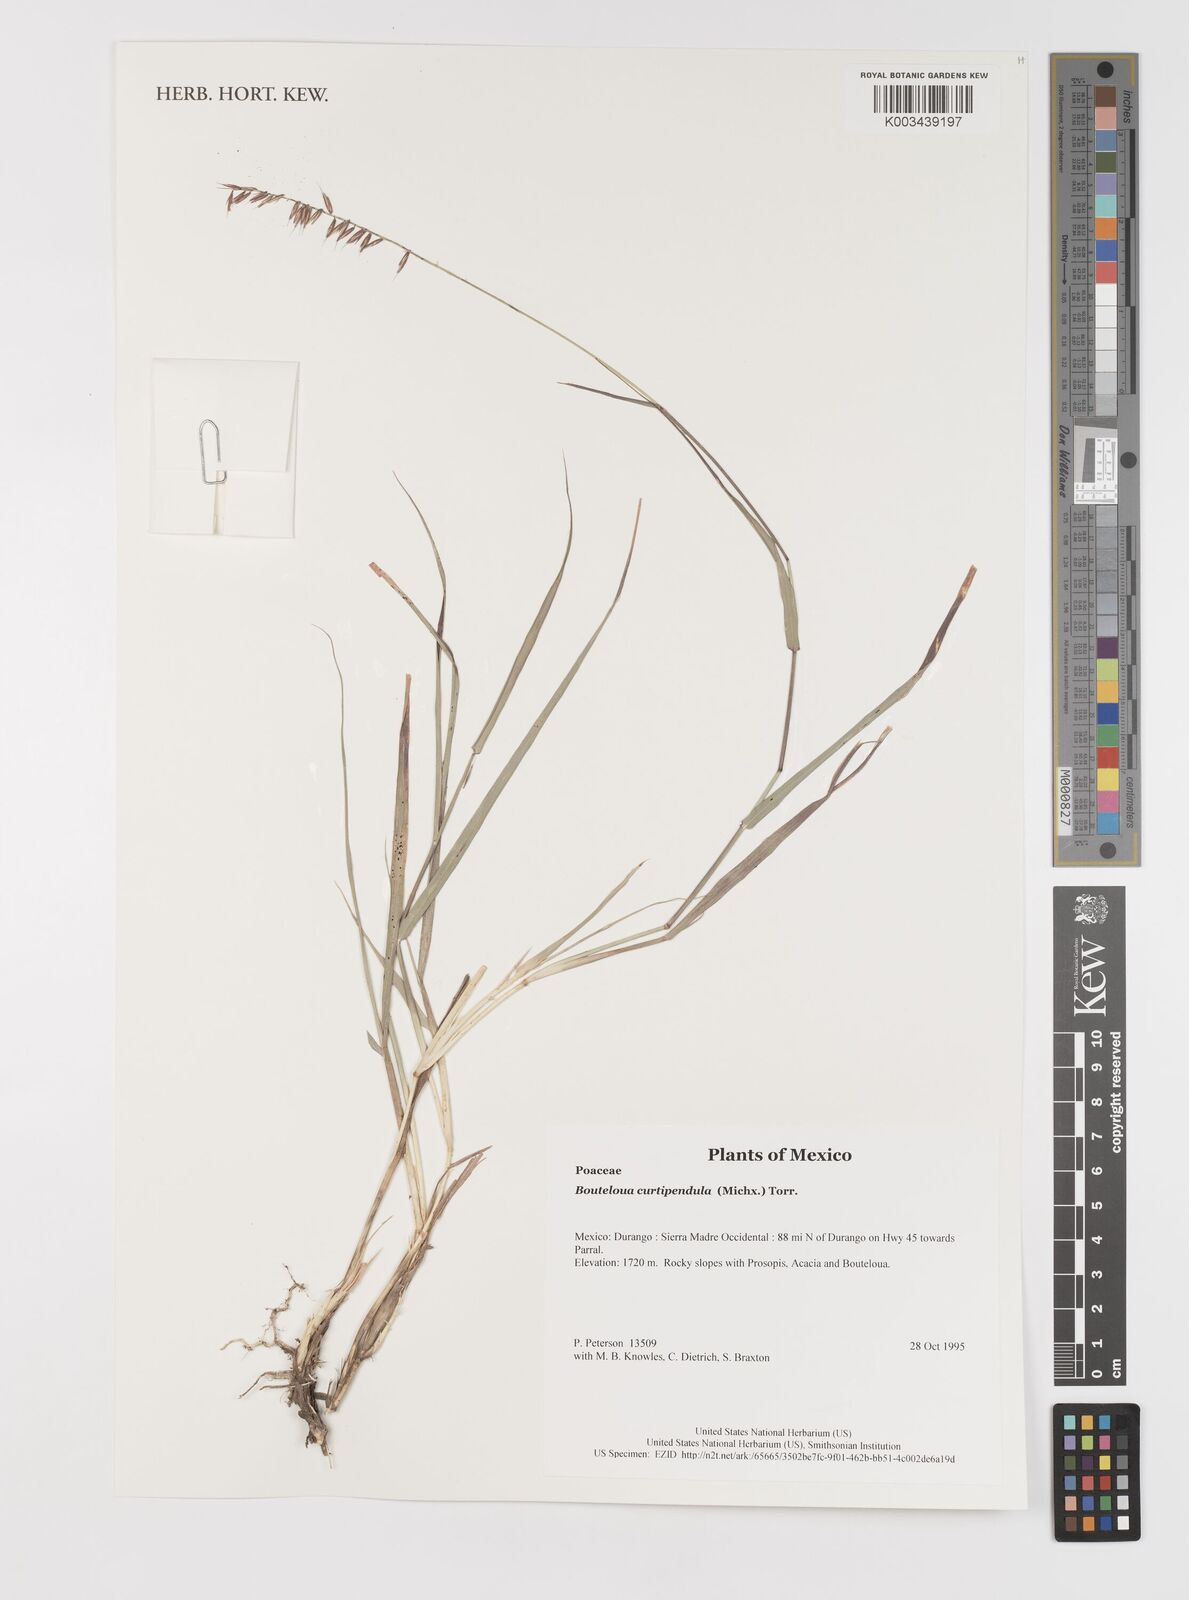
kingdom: Plantae
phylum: Tracheophyta
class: Liliopsida
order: Poales
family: Poaceae
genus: Bouteloua
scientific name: Bouteloua curtipendula
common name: Side-oats grama
